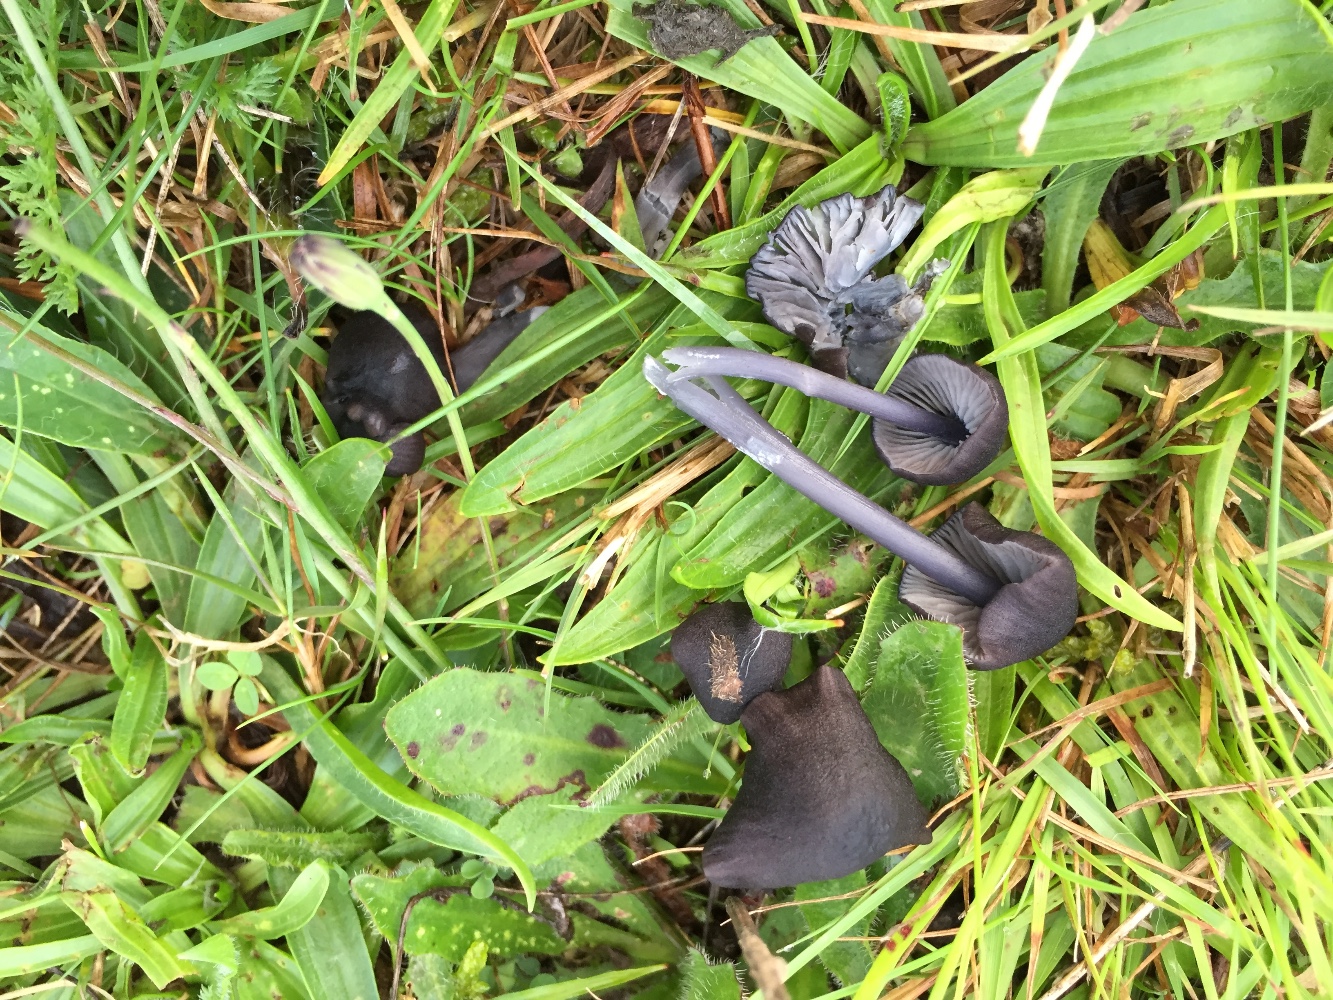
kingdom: Fungi
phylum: Basidiomycota
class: Agaricomycetes
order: Agaricales
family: Entolomataceae
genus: Entoloma
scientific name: Entoloma chalybeum
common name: blåbladet rødblad
